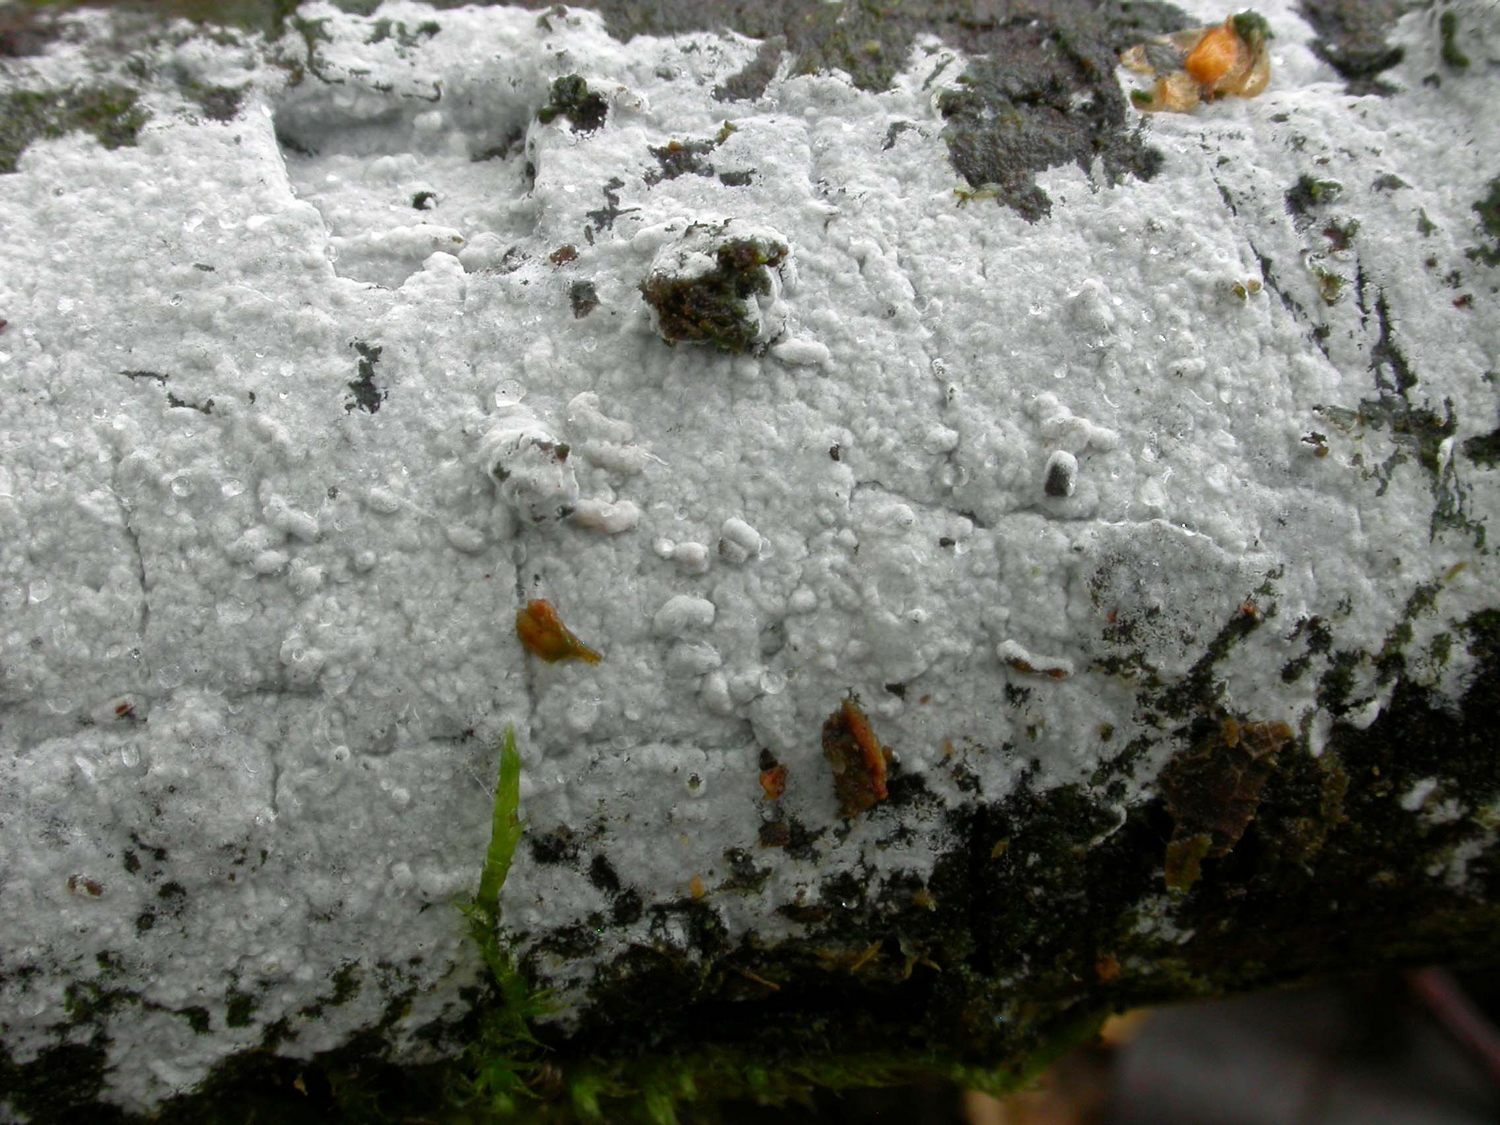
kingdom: Fungi
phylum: Basidiomycota
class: Agaricomycetes
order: Atheliales
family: Atheliaceae
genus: Athelia
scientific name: Athelia epiphylla
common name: almindelig barkhinde
